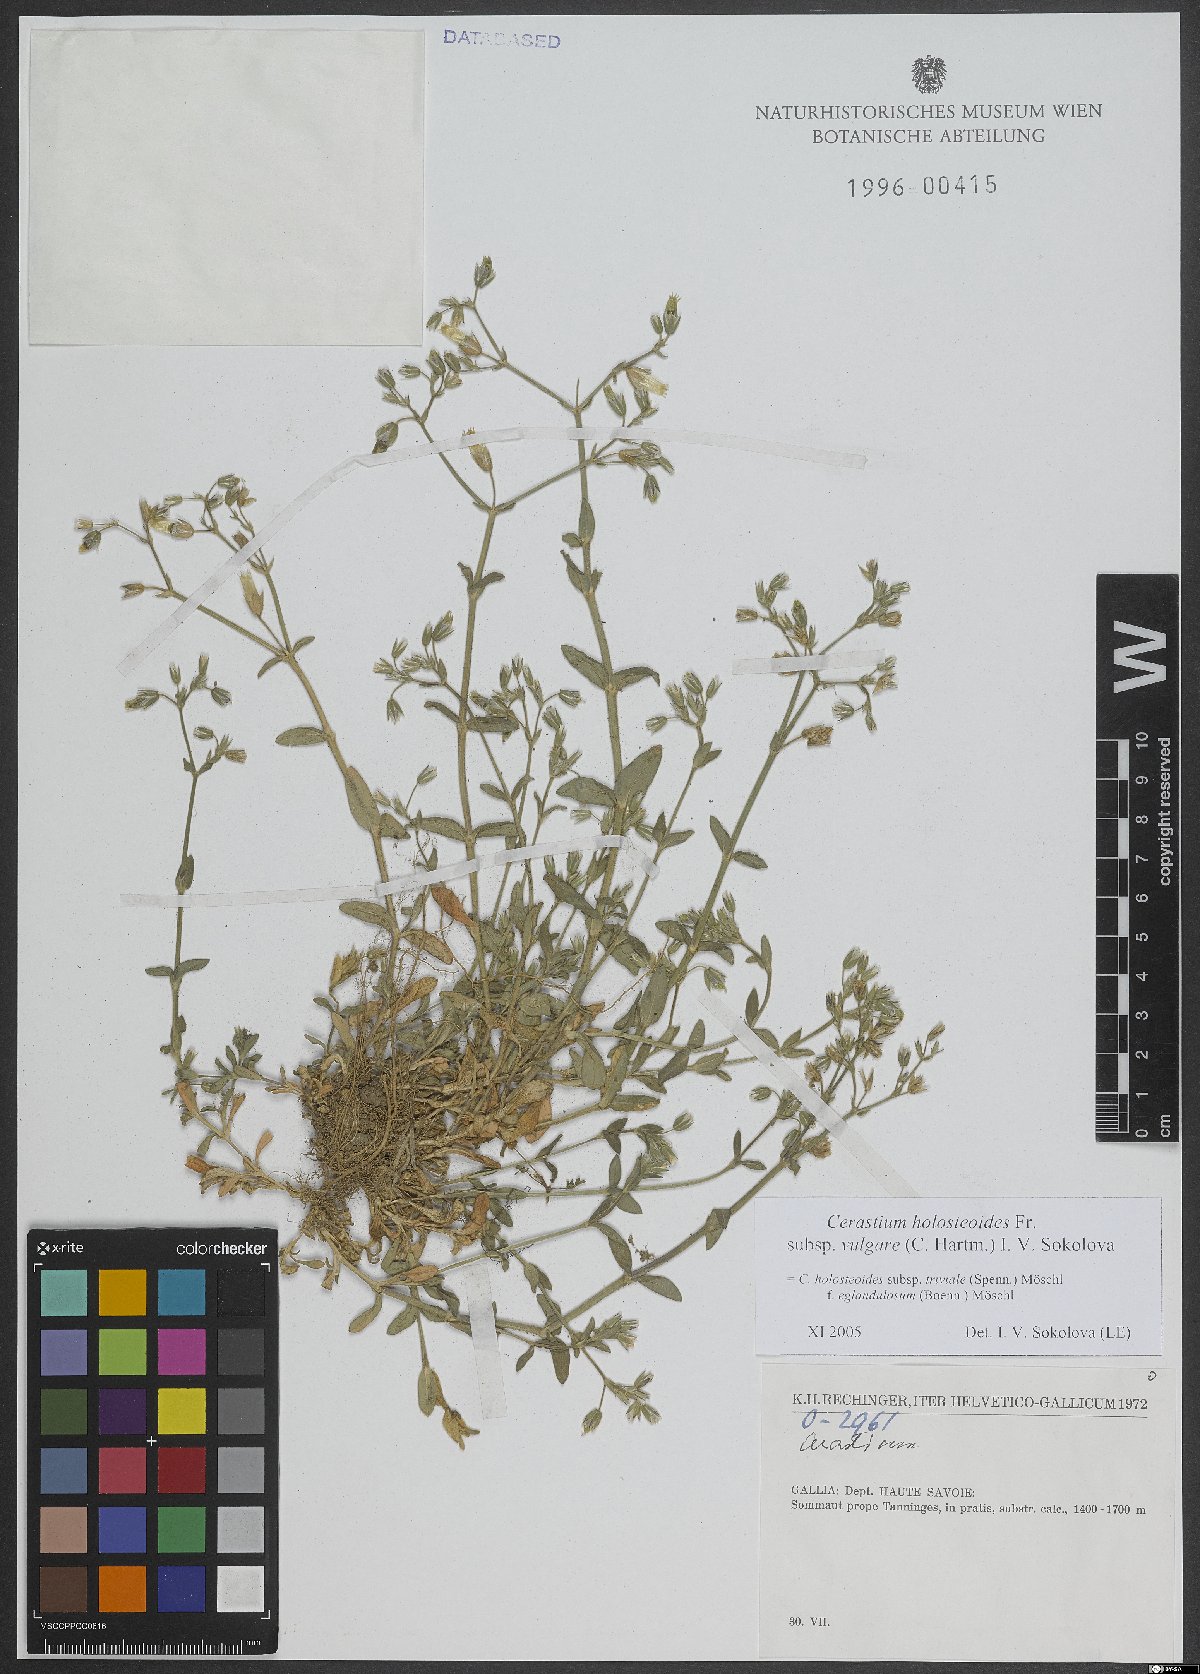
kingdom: Plantae
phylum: Tracheophyta
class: Magnoliopsida
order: Caryophyllales
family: Caryophyllaceae
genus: Cerastium
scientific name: Cerastium holosteoides
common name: Big chickweed
